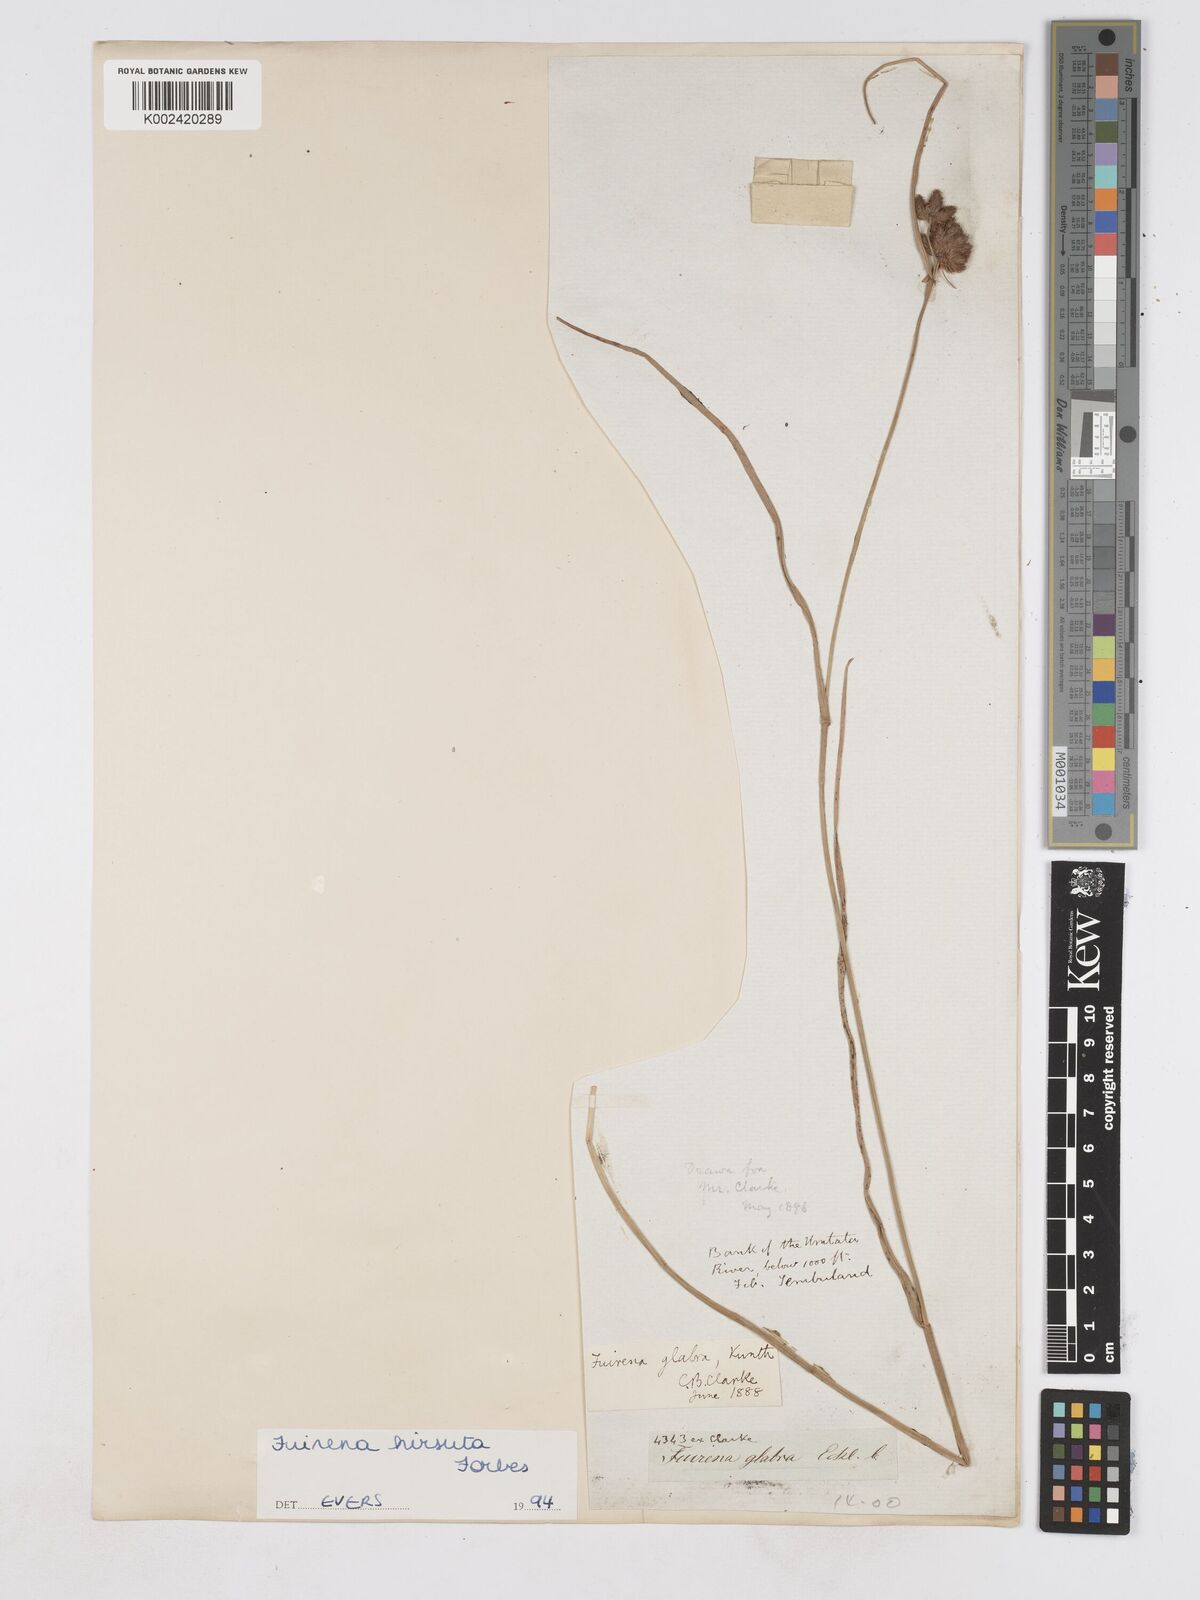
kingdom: Plantae
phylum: Tracheophyta
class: Liliopsida
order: Poales
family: Cyperaceae
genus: Fuirena
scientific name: Fuirena hirsuta
